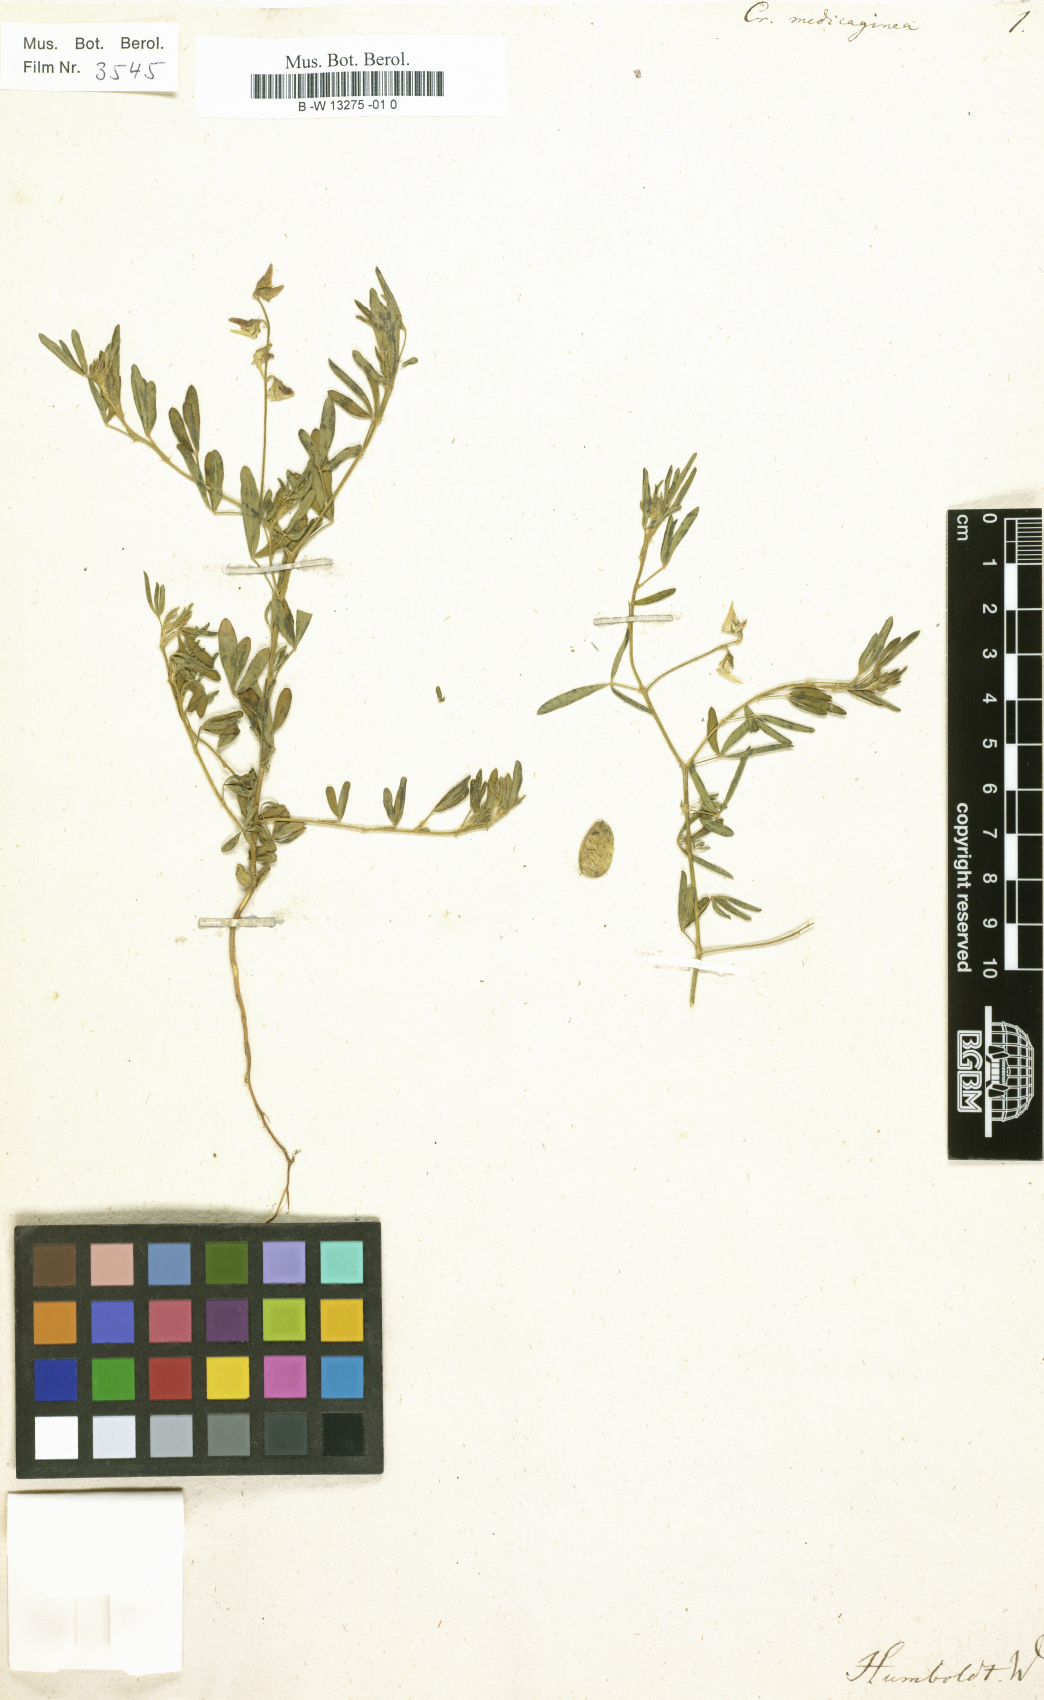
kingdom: Plantae
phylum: Tracheophyta
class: Magnoliopsida
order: Fabales
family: Fabaceae
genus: Crotalaria
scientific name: Crotalaria
